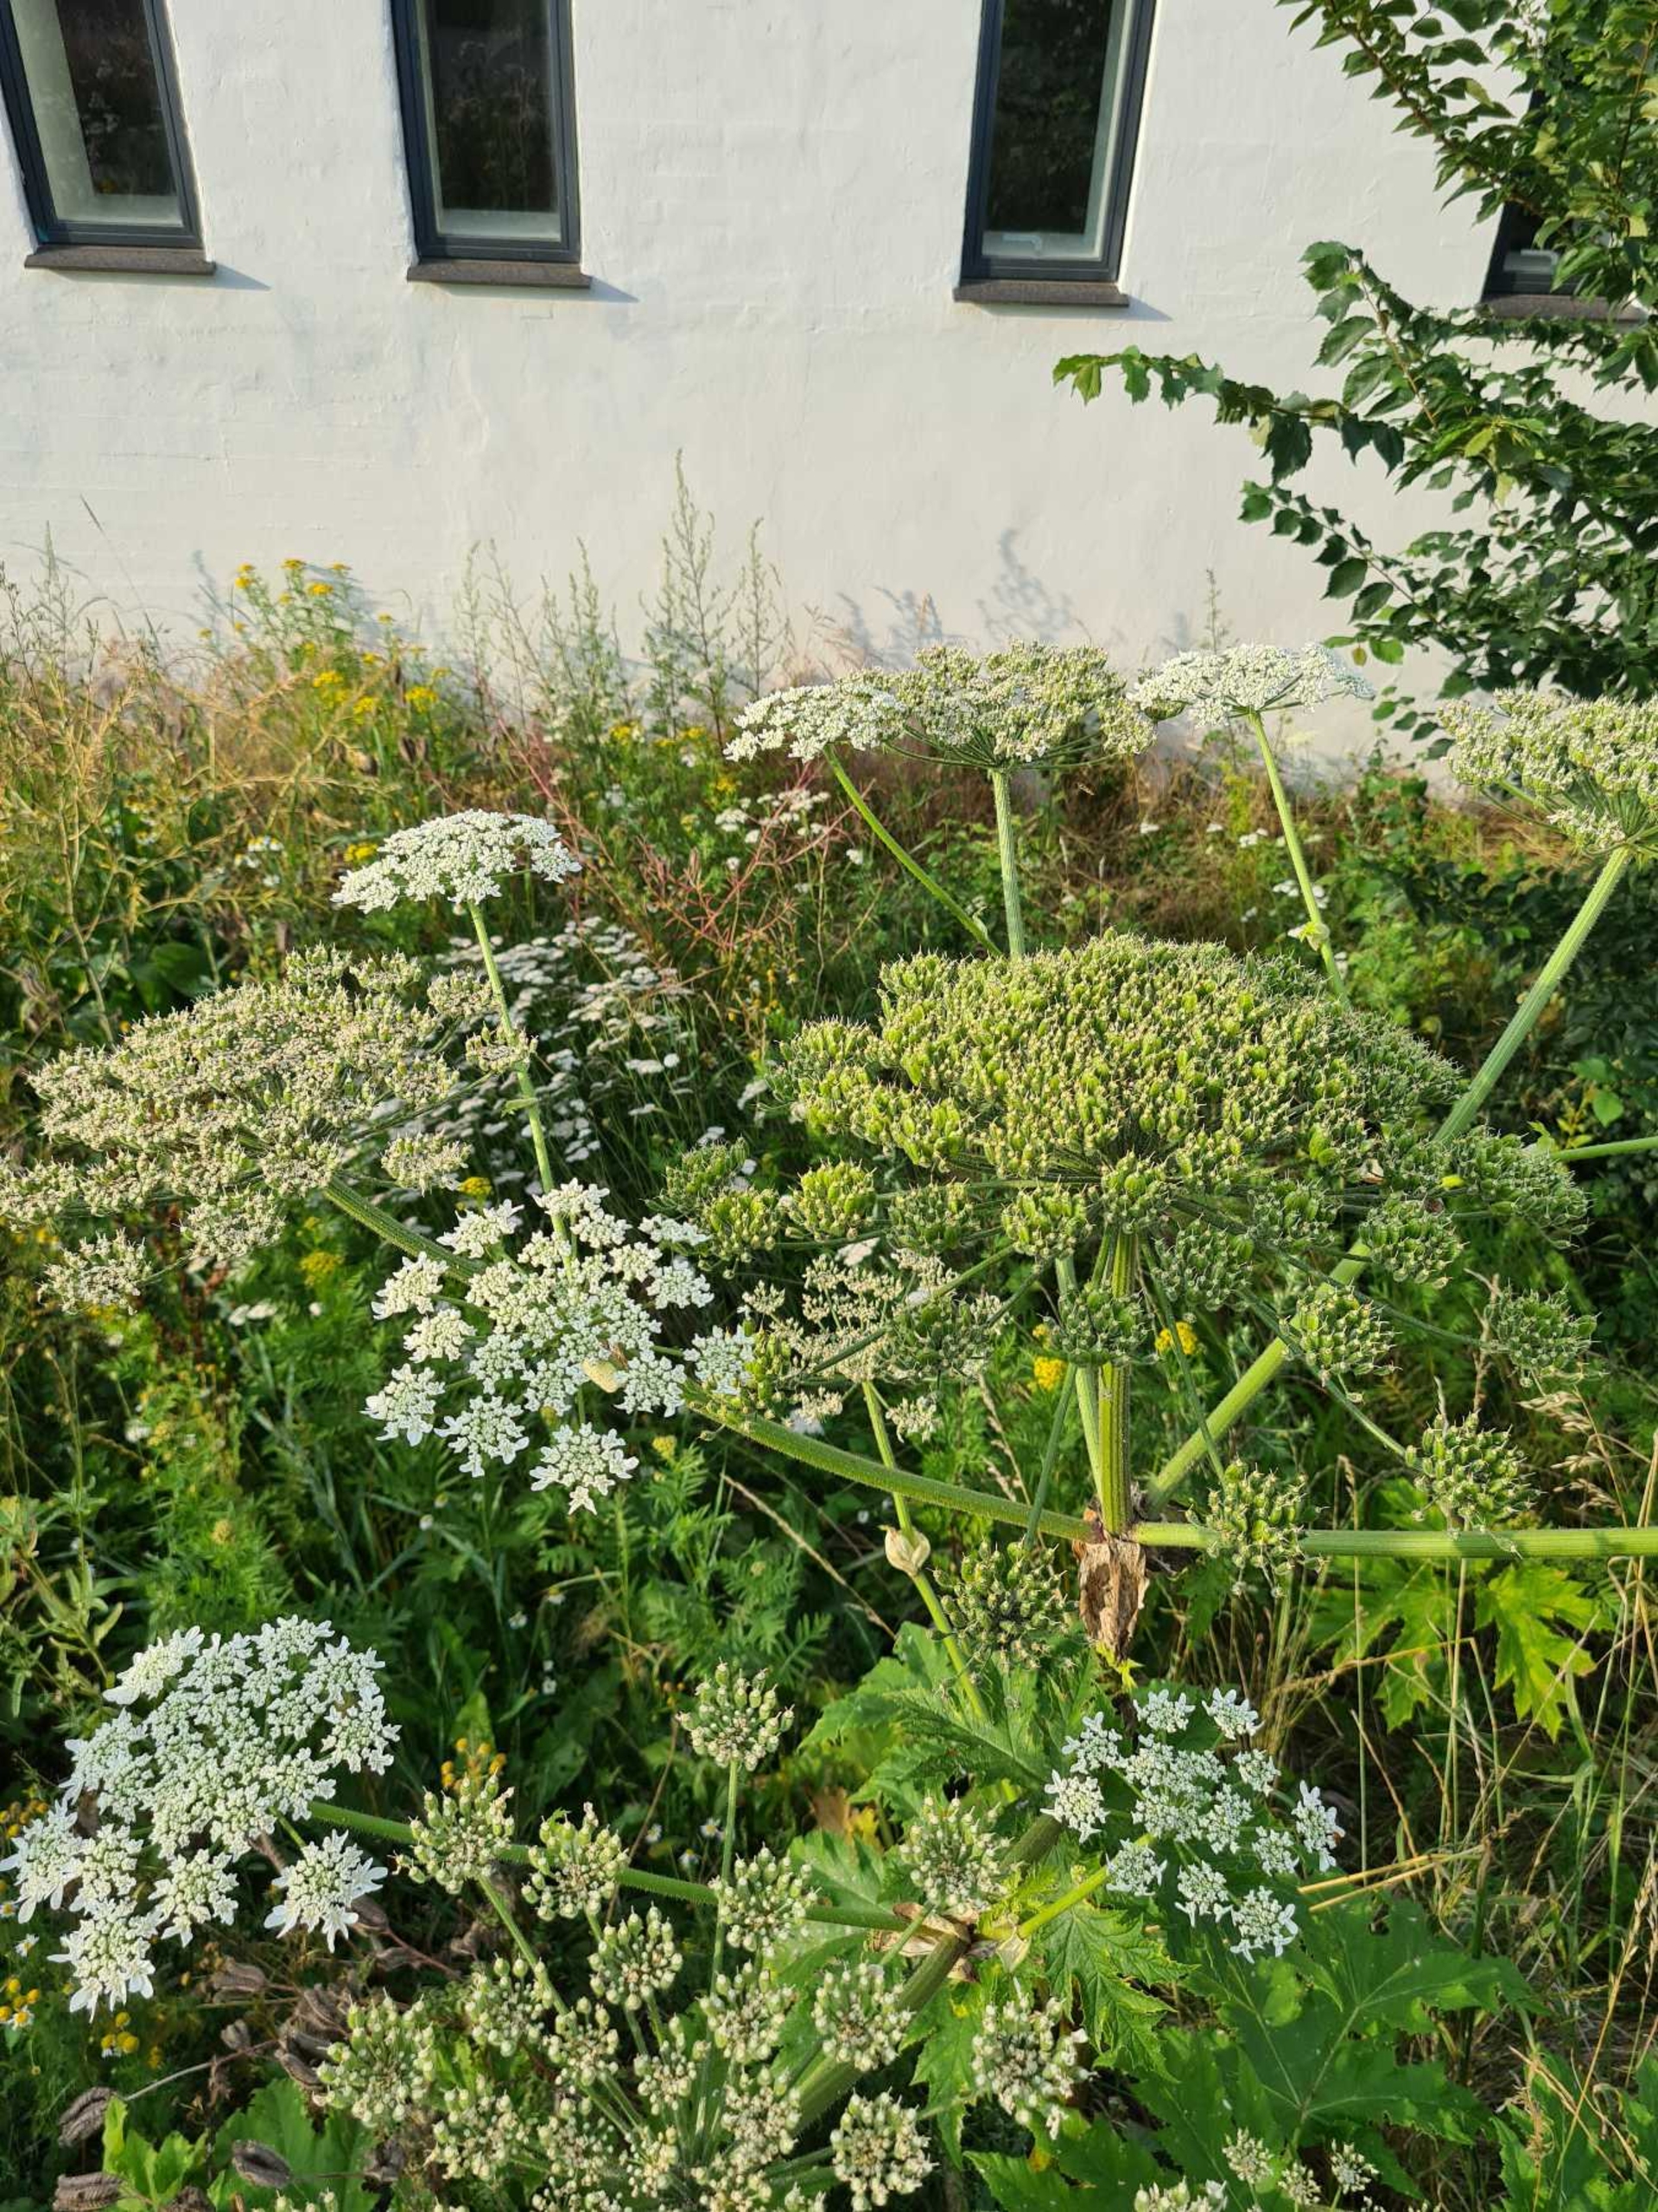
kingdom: Plantae
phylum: Tracheophyta
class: Magnoliopsida
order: Apiales
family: Apiaceae
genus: Heracleum
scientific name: Heracleum mantegazzianum
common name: Kæmpe-bjørneklo
